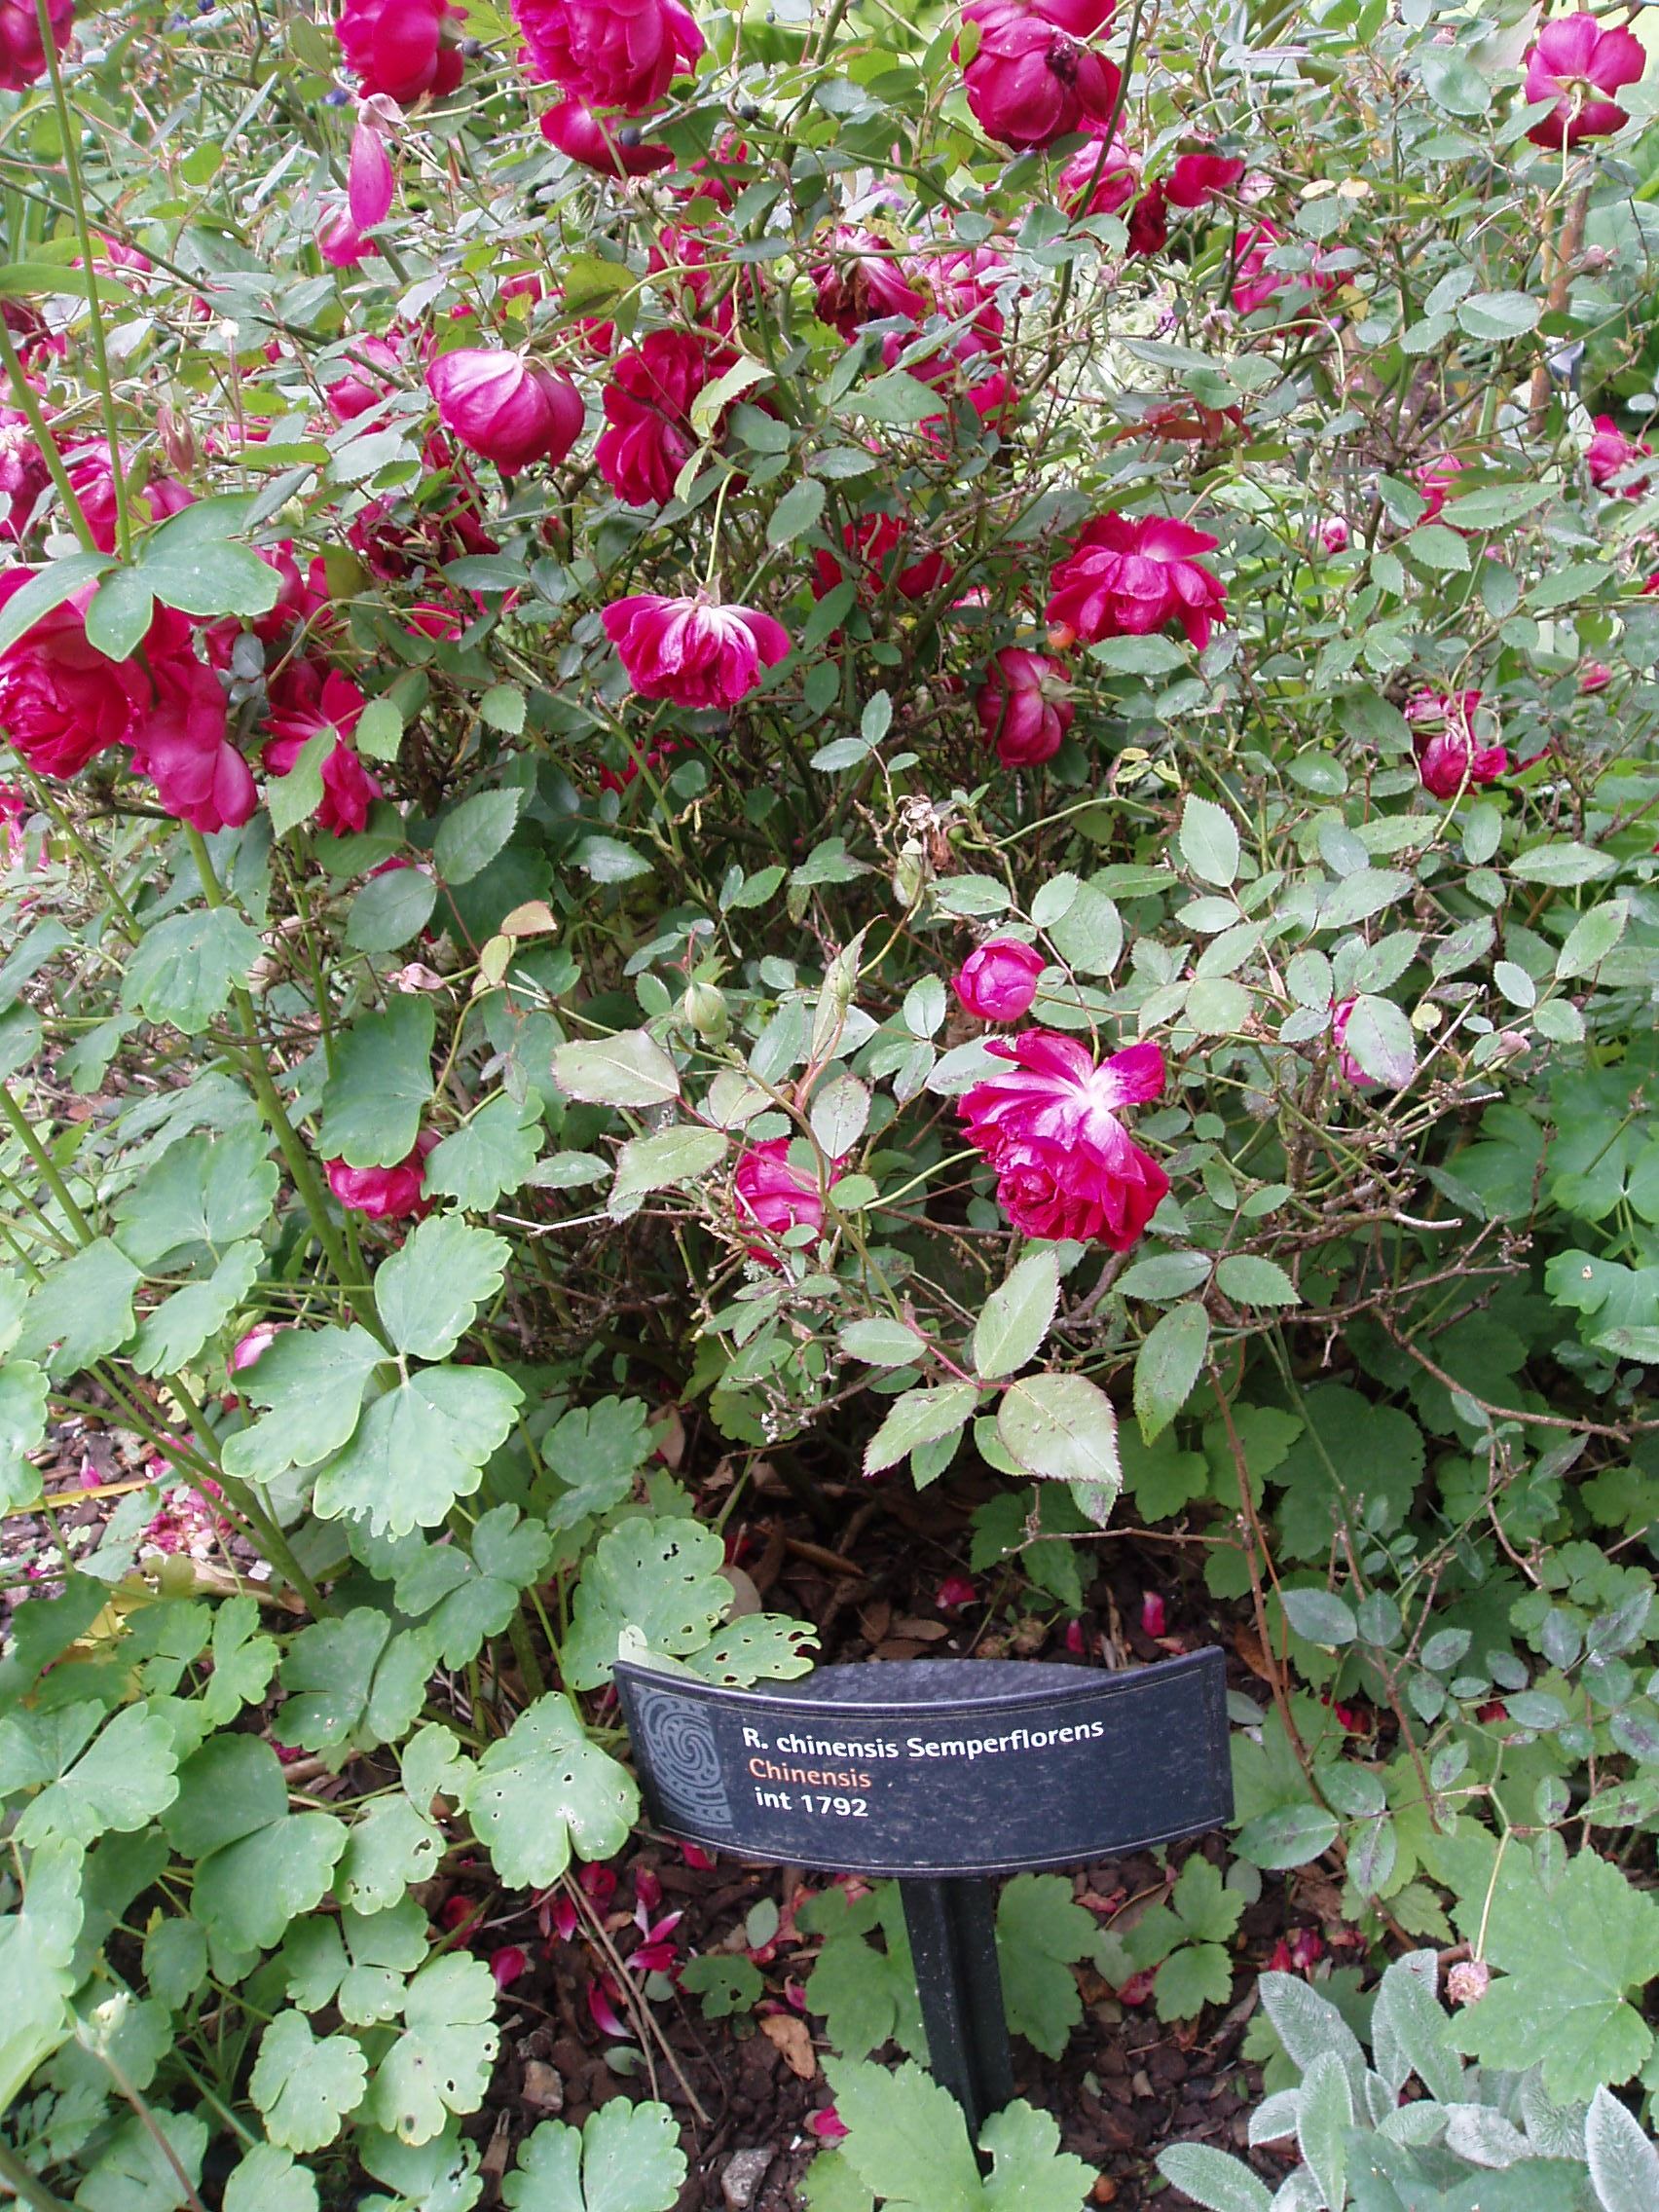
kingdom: Plantae
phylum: Tracheophyta
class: Magnoliopsida
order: Rosales
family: Rosaceae
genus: Rosa
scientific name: Rosa chinensis
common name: China rose
